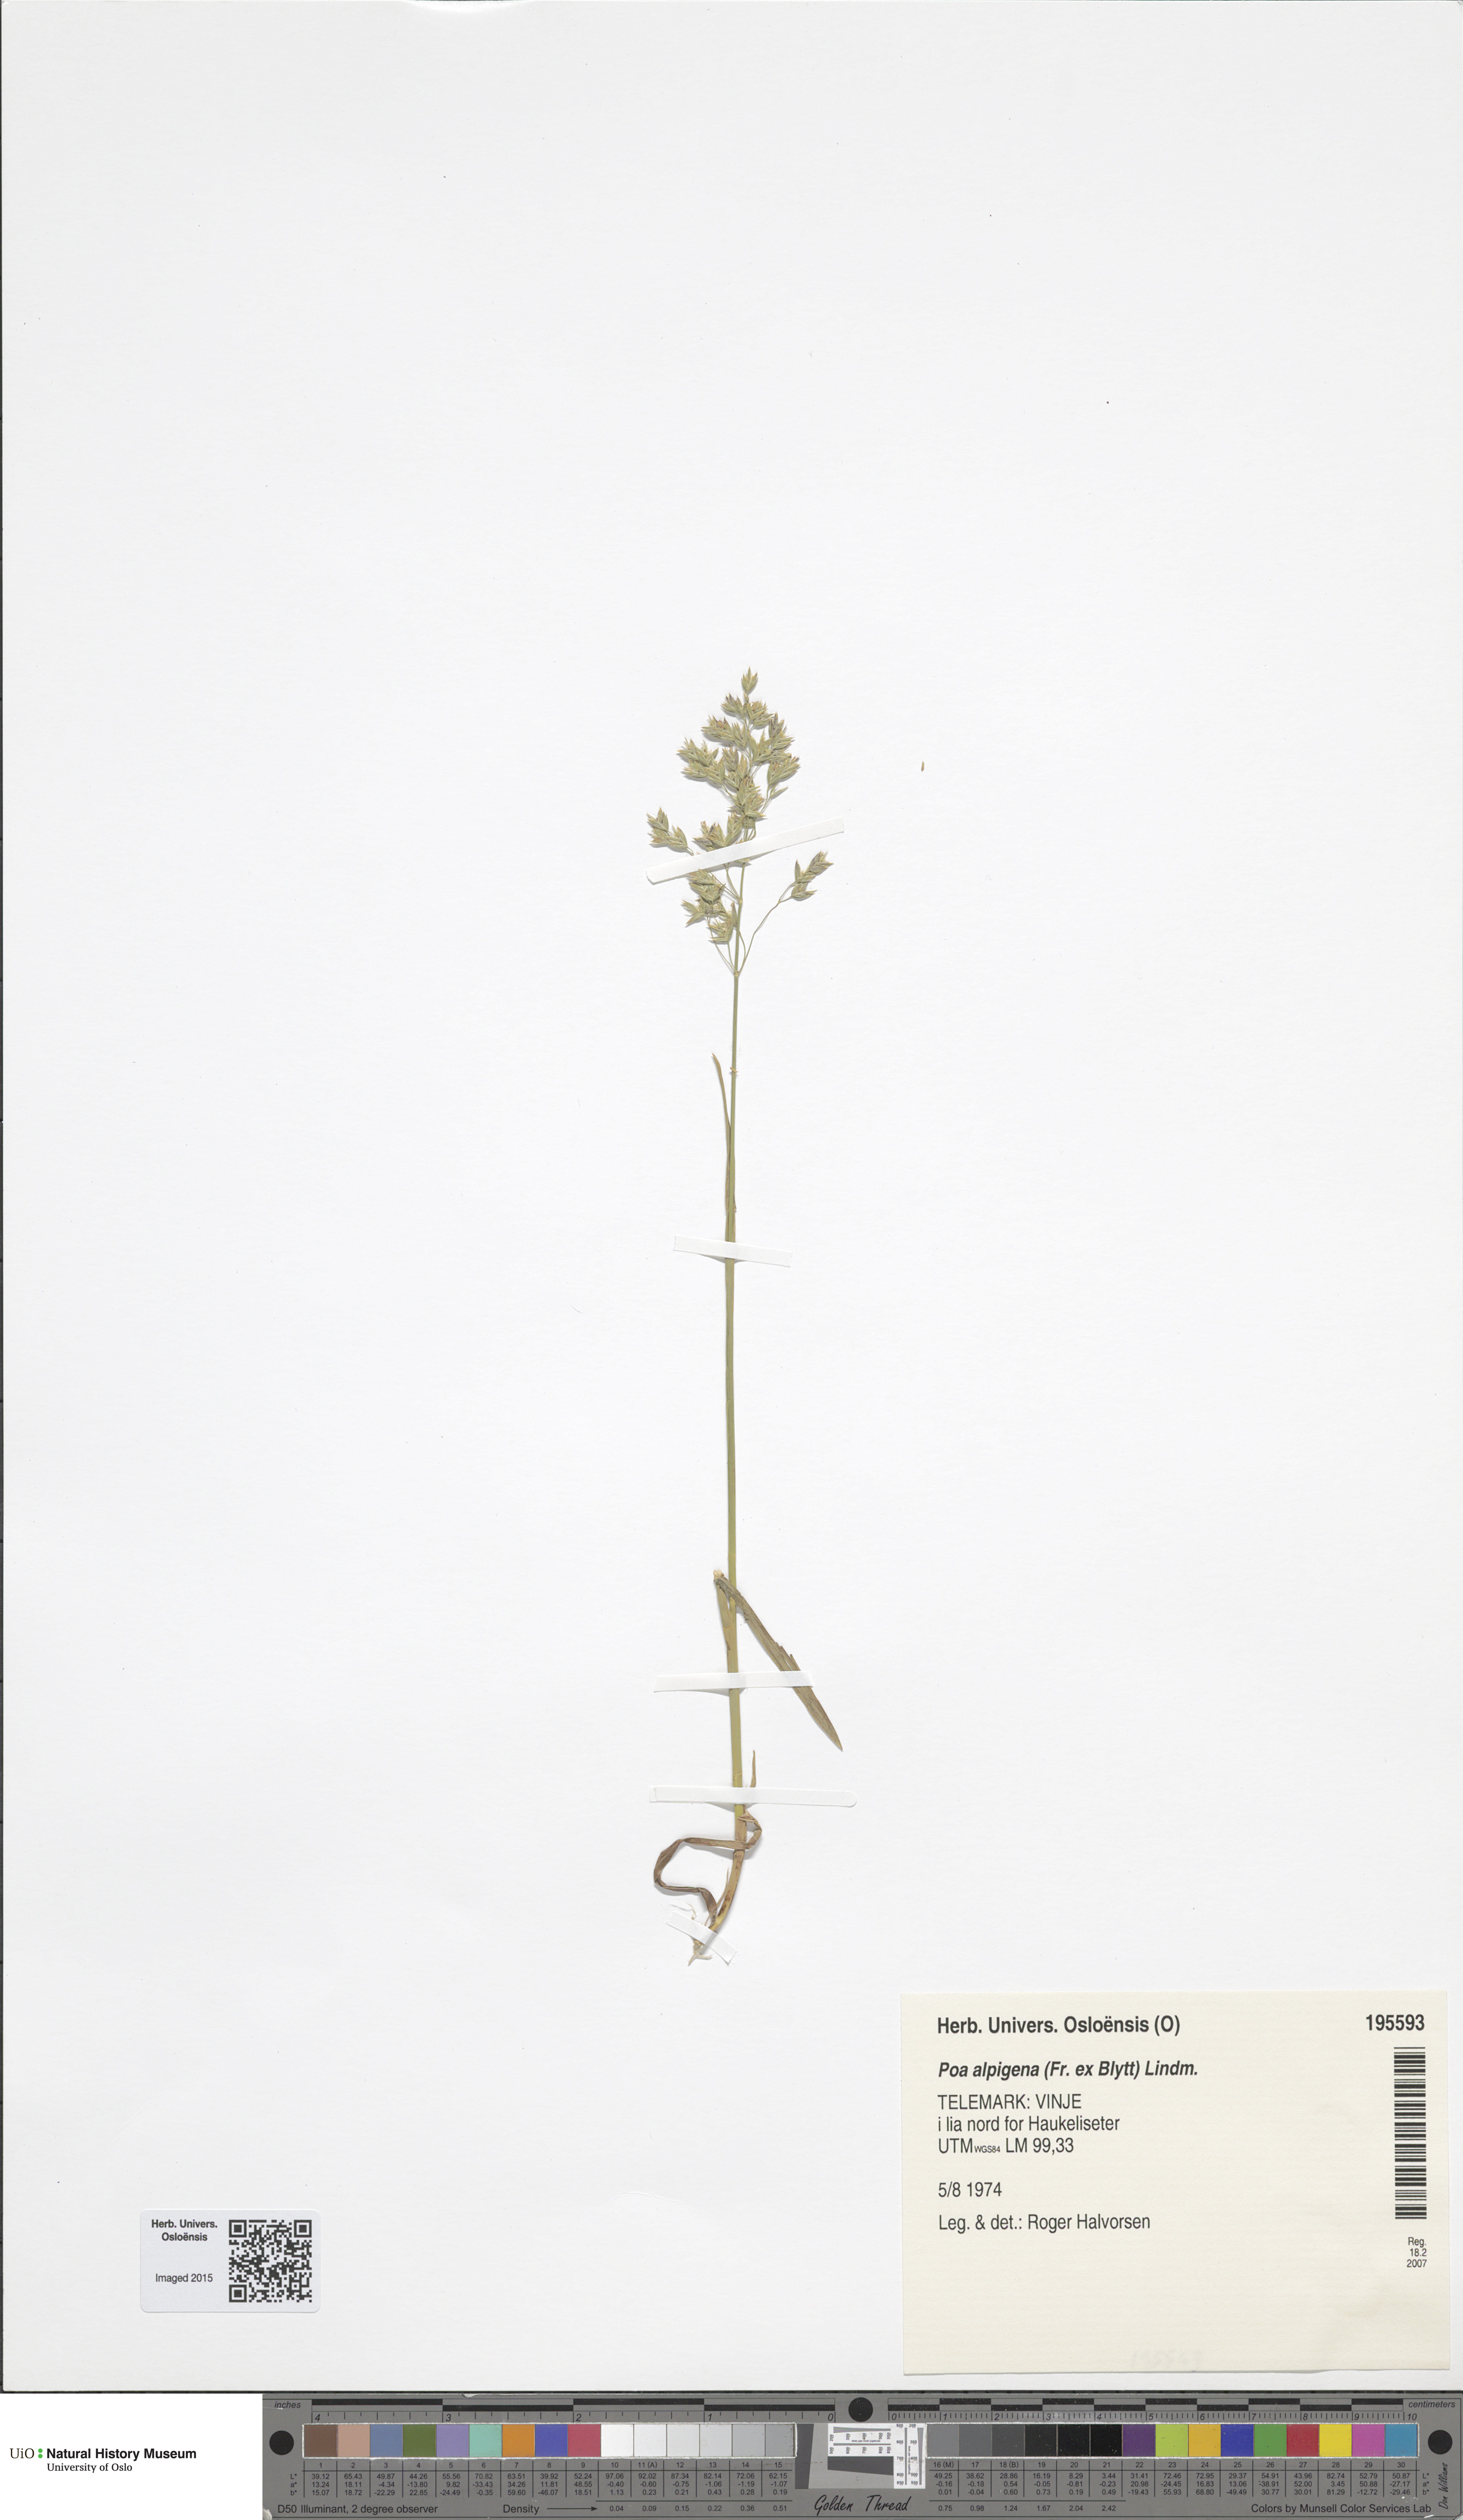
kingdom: Plantae
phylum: Tracheophyta
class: Liliopsida
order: Poales
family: Poaceae
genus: Poa
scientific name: Poa alpigena
